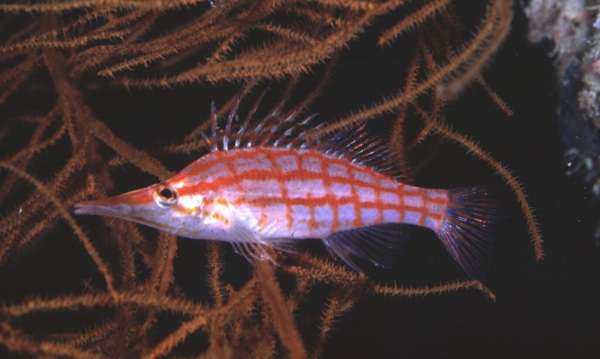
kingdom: Animalia
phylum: Chordata
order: Perciformes
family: Cirrhitidae
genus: Oxycirrhites
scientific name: Oxycirrhites typus
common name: Longnose hawkfish
